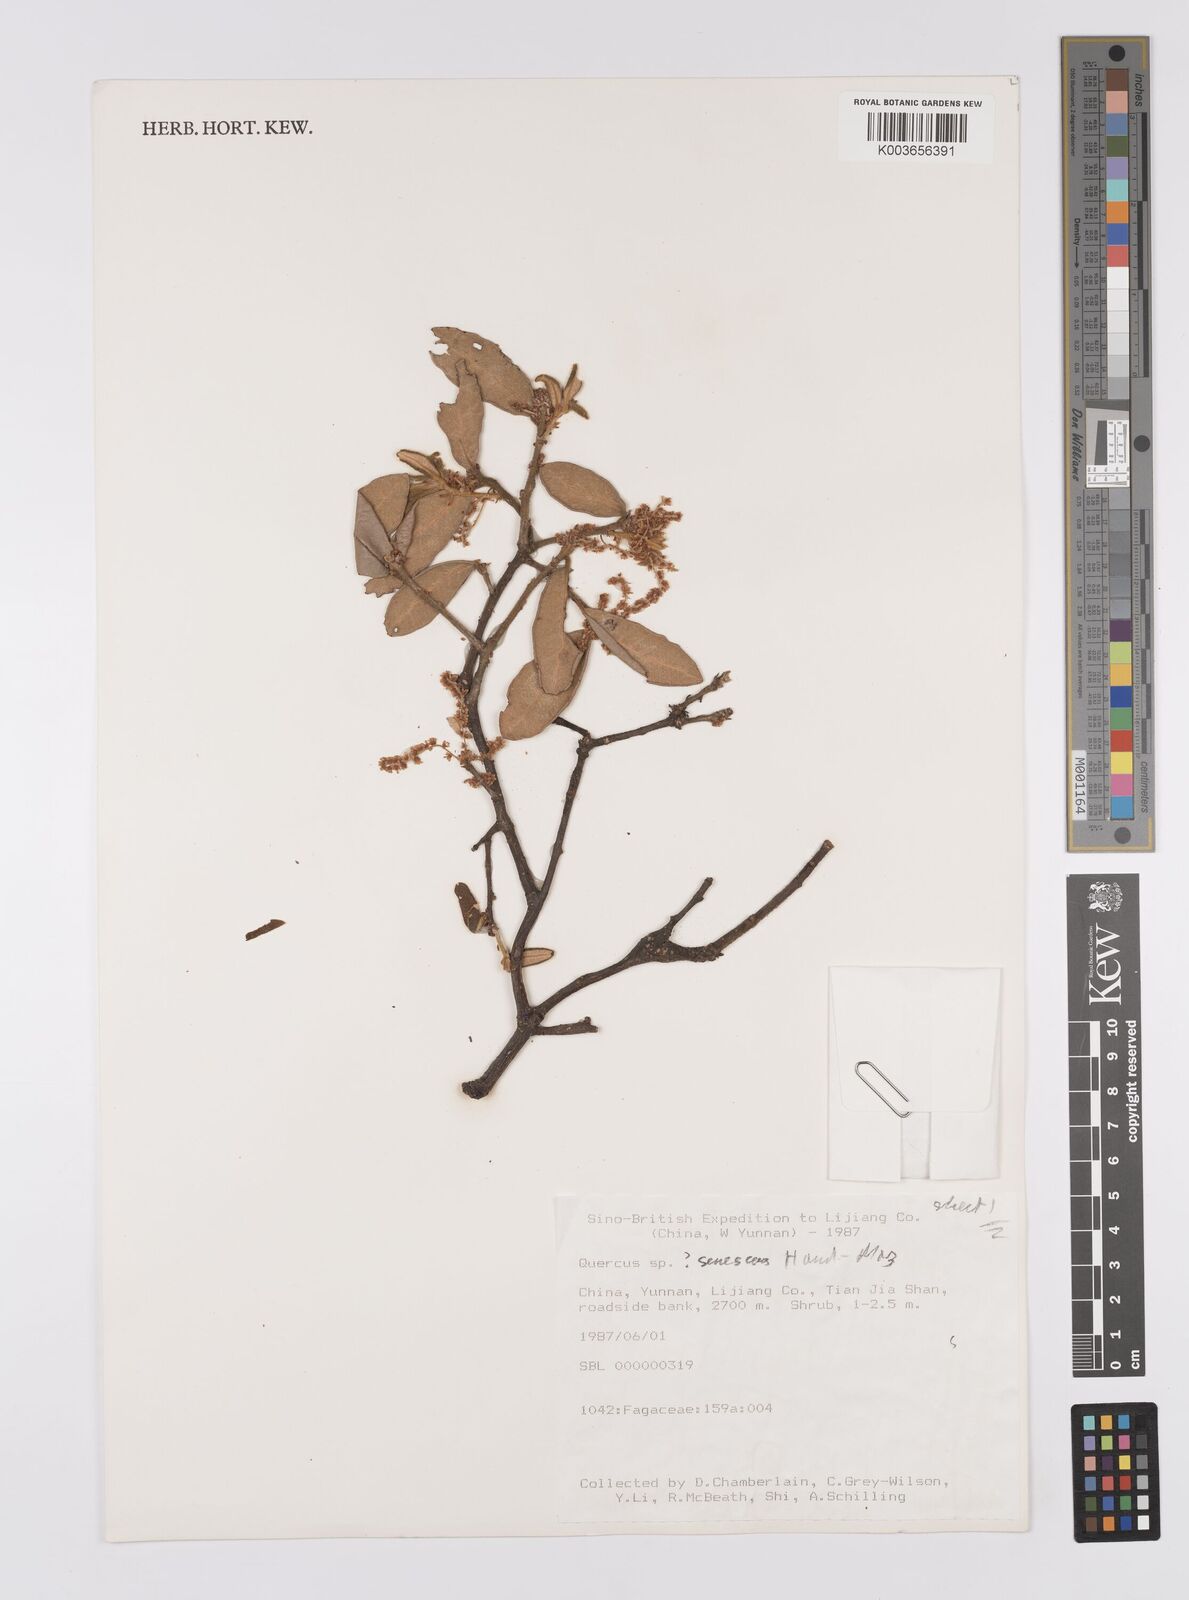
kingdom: Plantae
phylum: Tracheophyta
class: Magnoliopsida
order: Fagales
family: Fagaceae
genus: Quercus
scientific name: Quercus senescens
